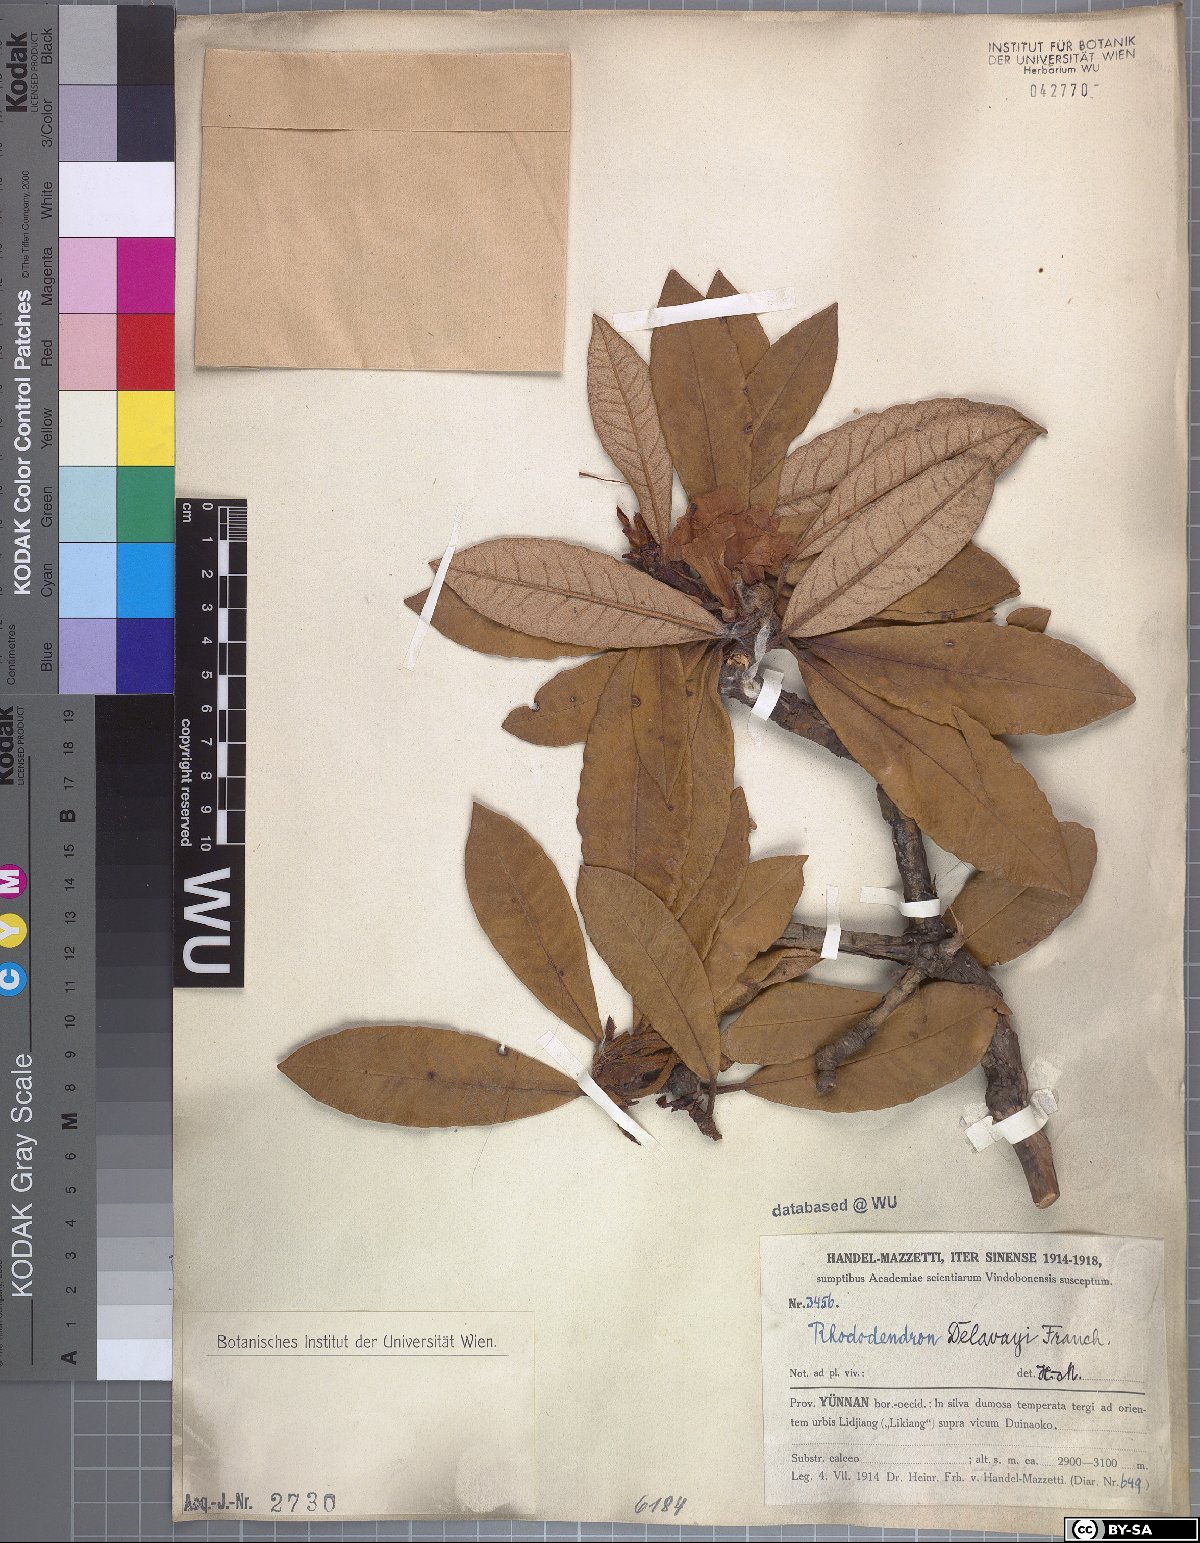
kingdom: Plantae
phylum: Tracheophyta
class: Magnoliopsida
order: Ericales
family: Ericaceae
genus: Rhododendron
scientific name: Rhododendron delavayi
